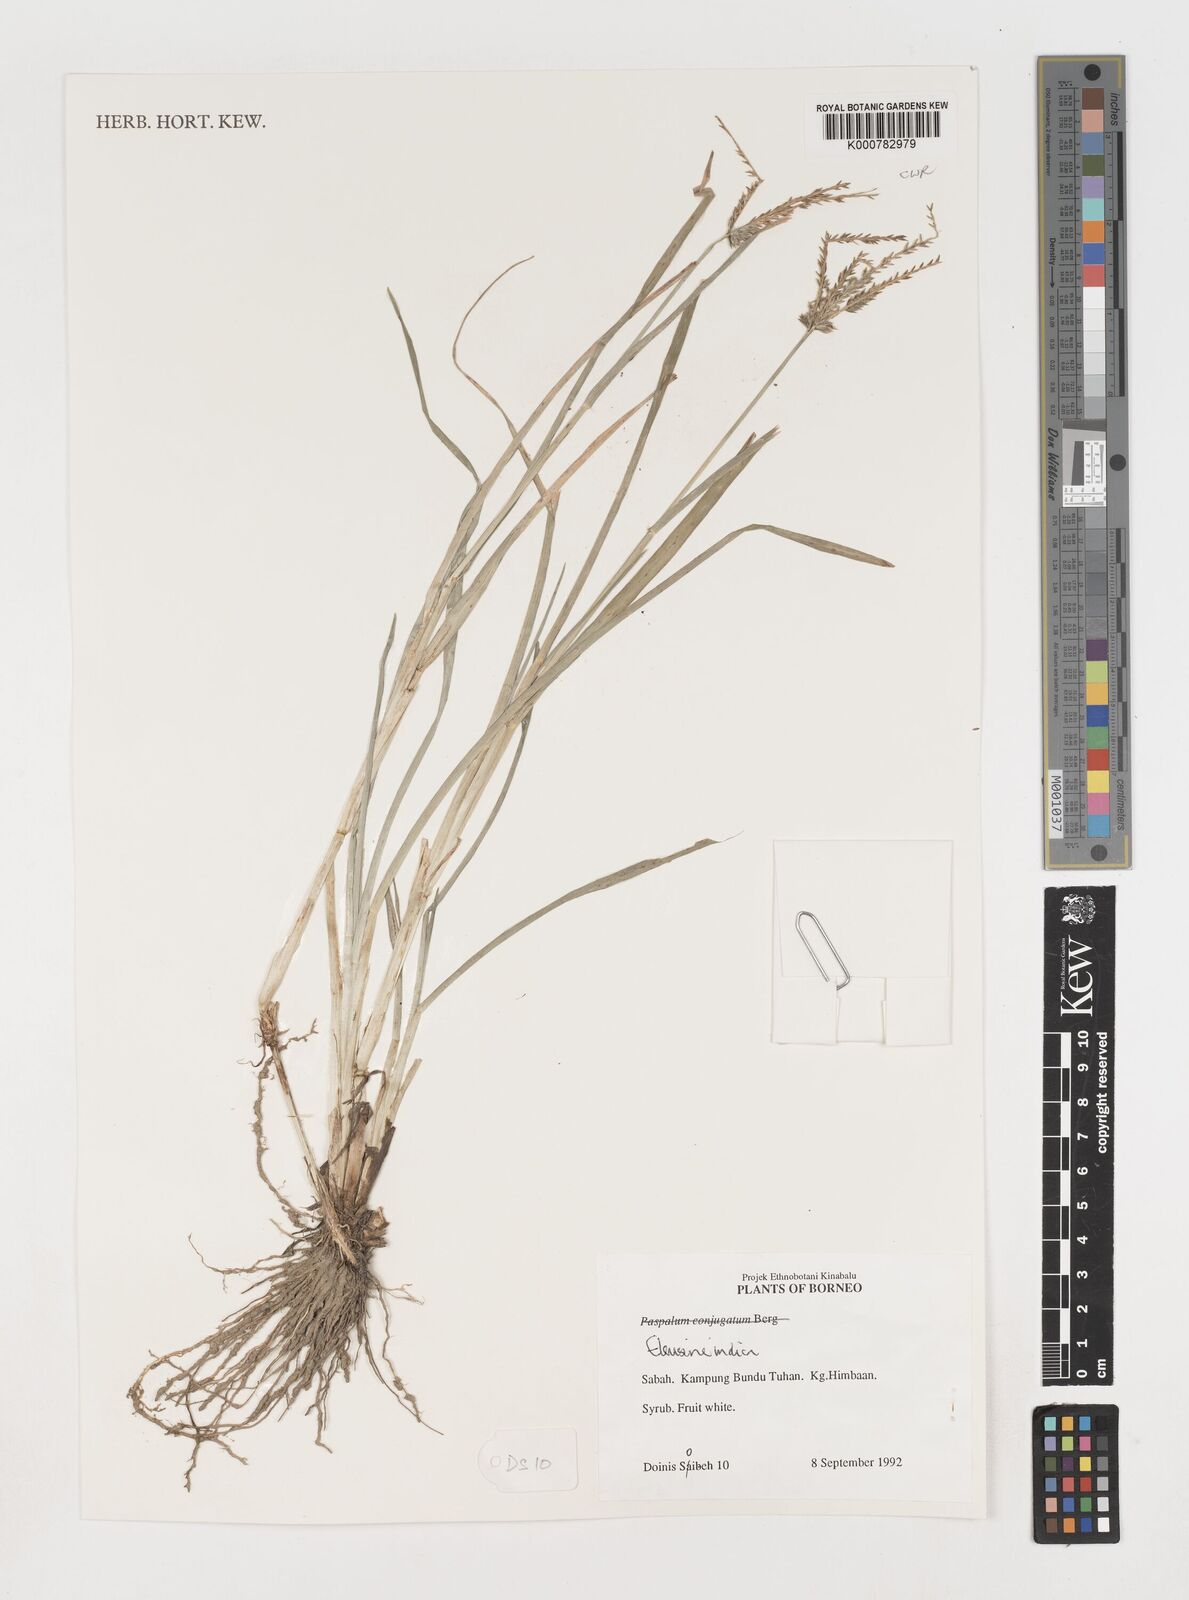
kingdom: Plantae
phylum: Tracheophyta
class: Liliopsida
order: Poales
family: Poaceae
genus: Eleusine
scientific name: Eleusine indica
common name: Yard-grass
